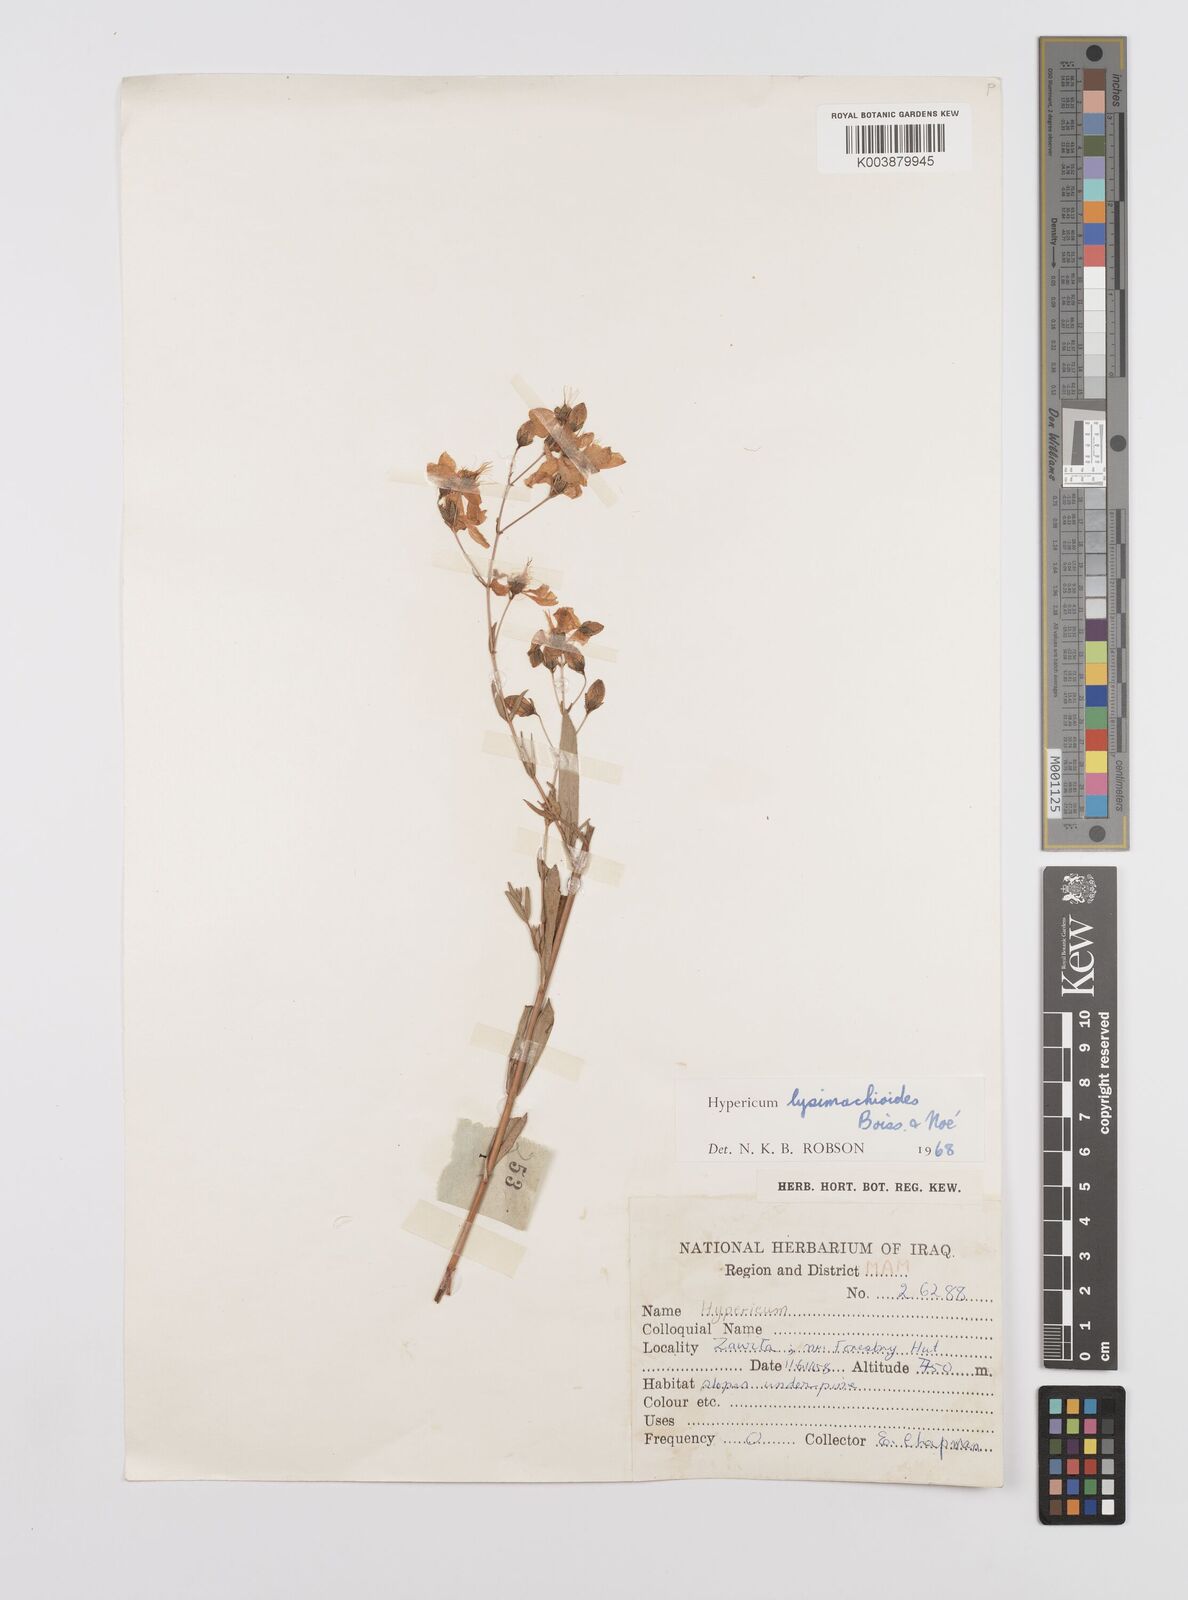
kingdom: Plantae
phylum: Tracheophyta
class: Magnoliopsida
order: Malpighiales
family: Hypericaceae
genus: Hypericum
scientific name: Hypericum lysimachioides
